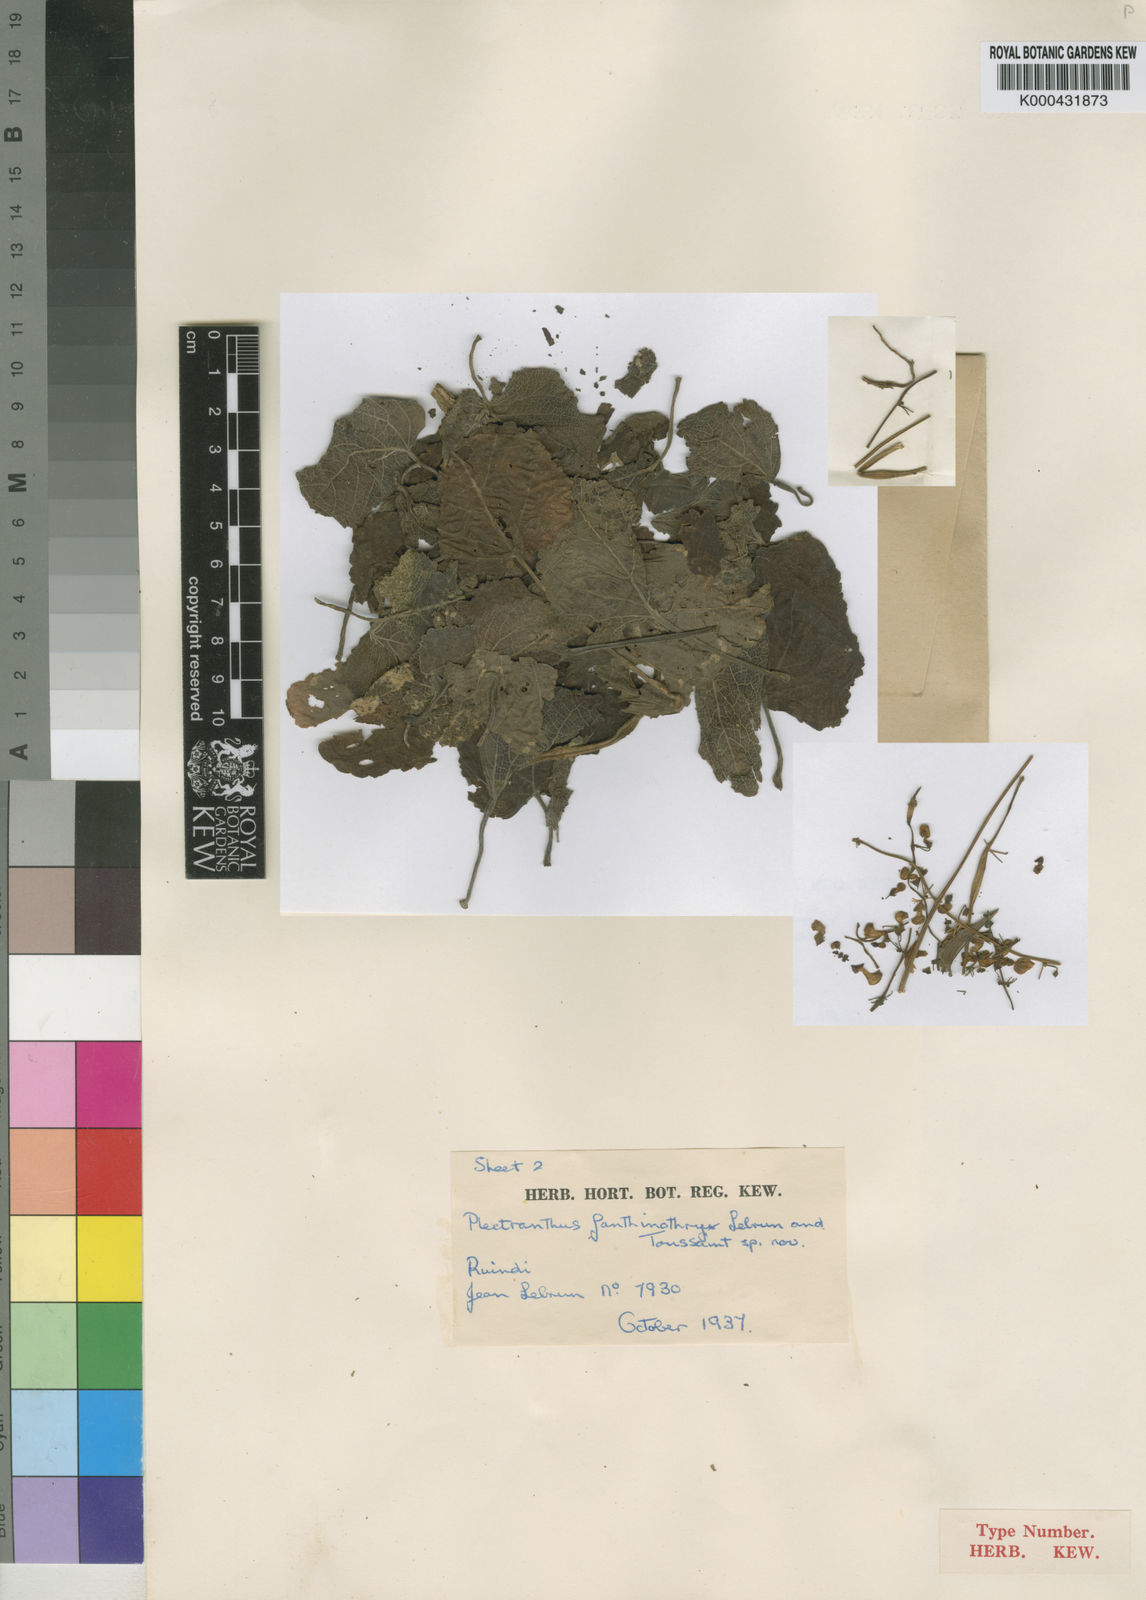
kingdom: Plantae
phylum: Tracheophyta
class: Magnoliopsida
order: Lamiales
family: Lamiaceae
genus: Equilabium
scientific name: Equilabium janthinothryx
